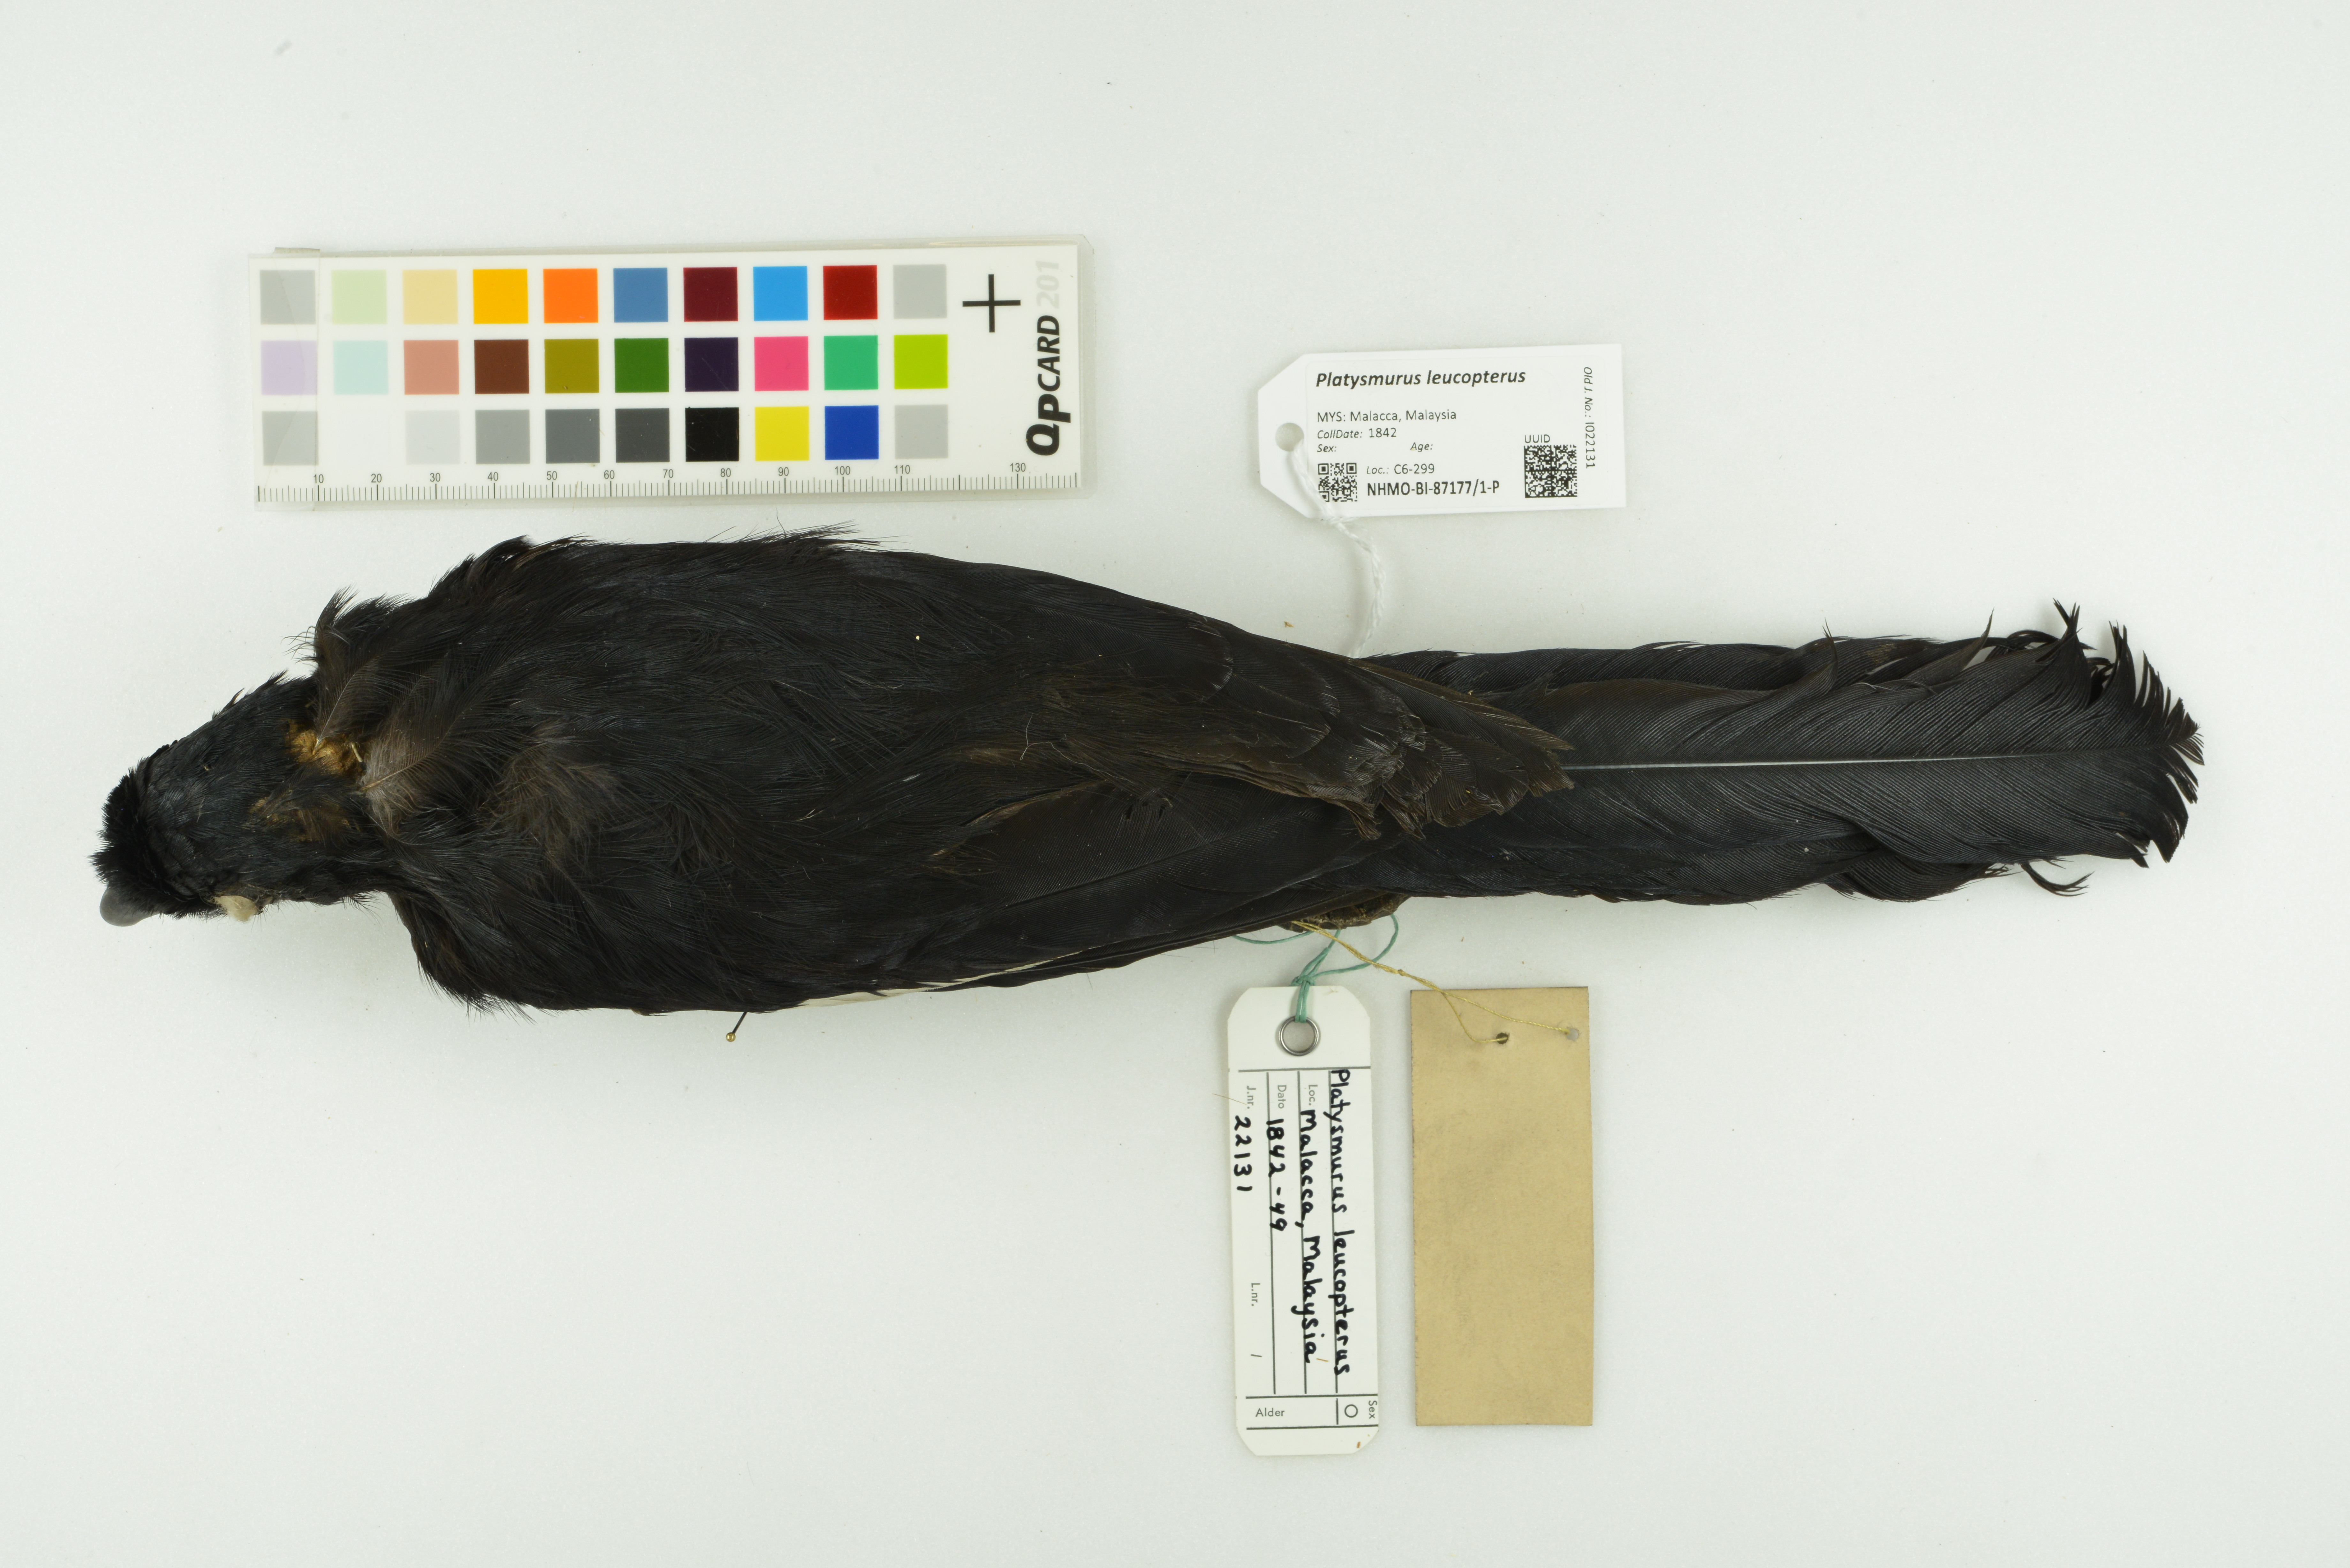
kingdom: Animalia
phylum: Chordata
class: Aves
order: Passeriformes
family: Corvidae
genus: Platysmurus
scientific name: Platysmurus leucopterus
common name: Black magpie
